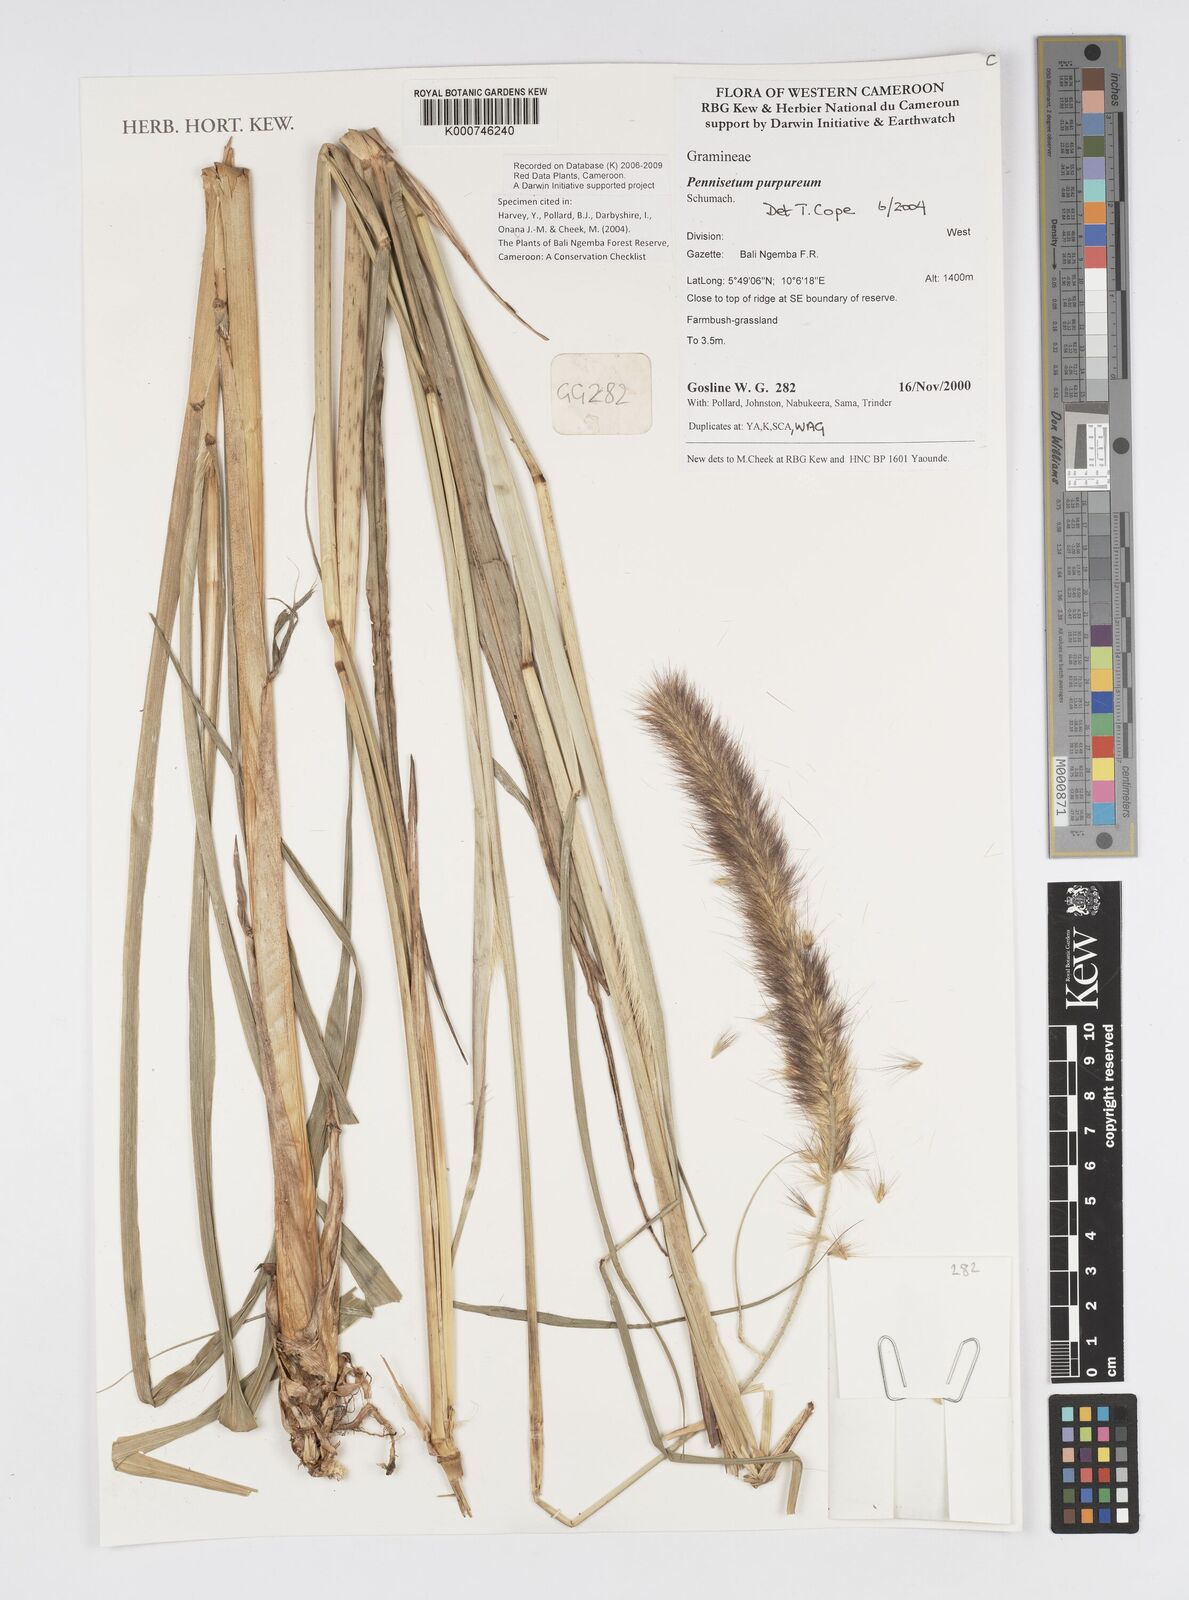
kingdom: Plantae
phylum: Tracheophyta
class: Liliopsida
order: Poales
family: Poaceae
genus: Cenchrus
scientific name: Cenchrus purpureus
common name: Elephant grass
